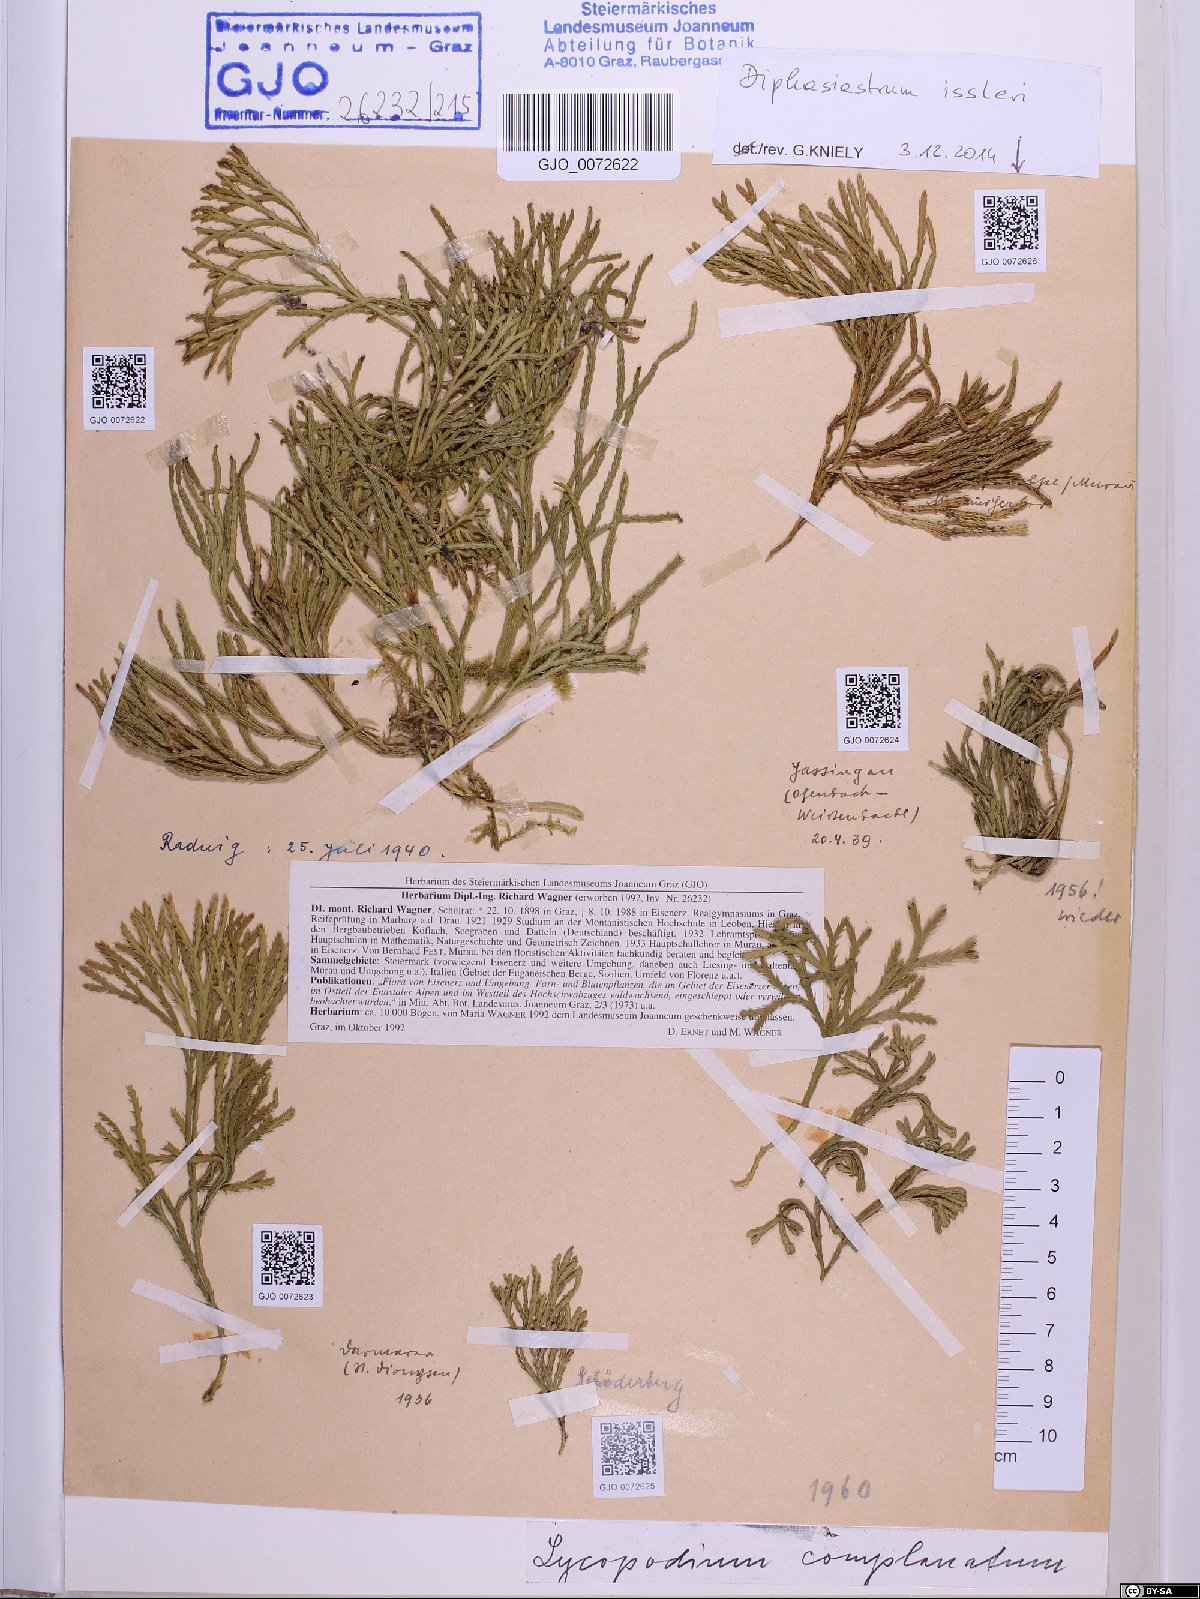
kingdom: Plantae
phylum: Tracheophyta
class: Lycopodiopsida
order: Lycopodiales
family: Lycopodiaceae
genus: Diphasiastrum
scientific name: Diphasiastrum issleri
